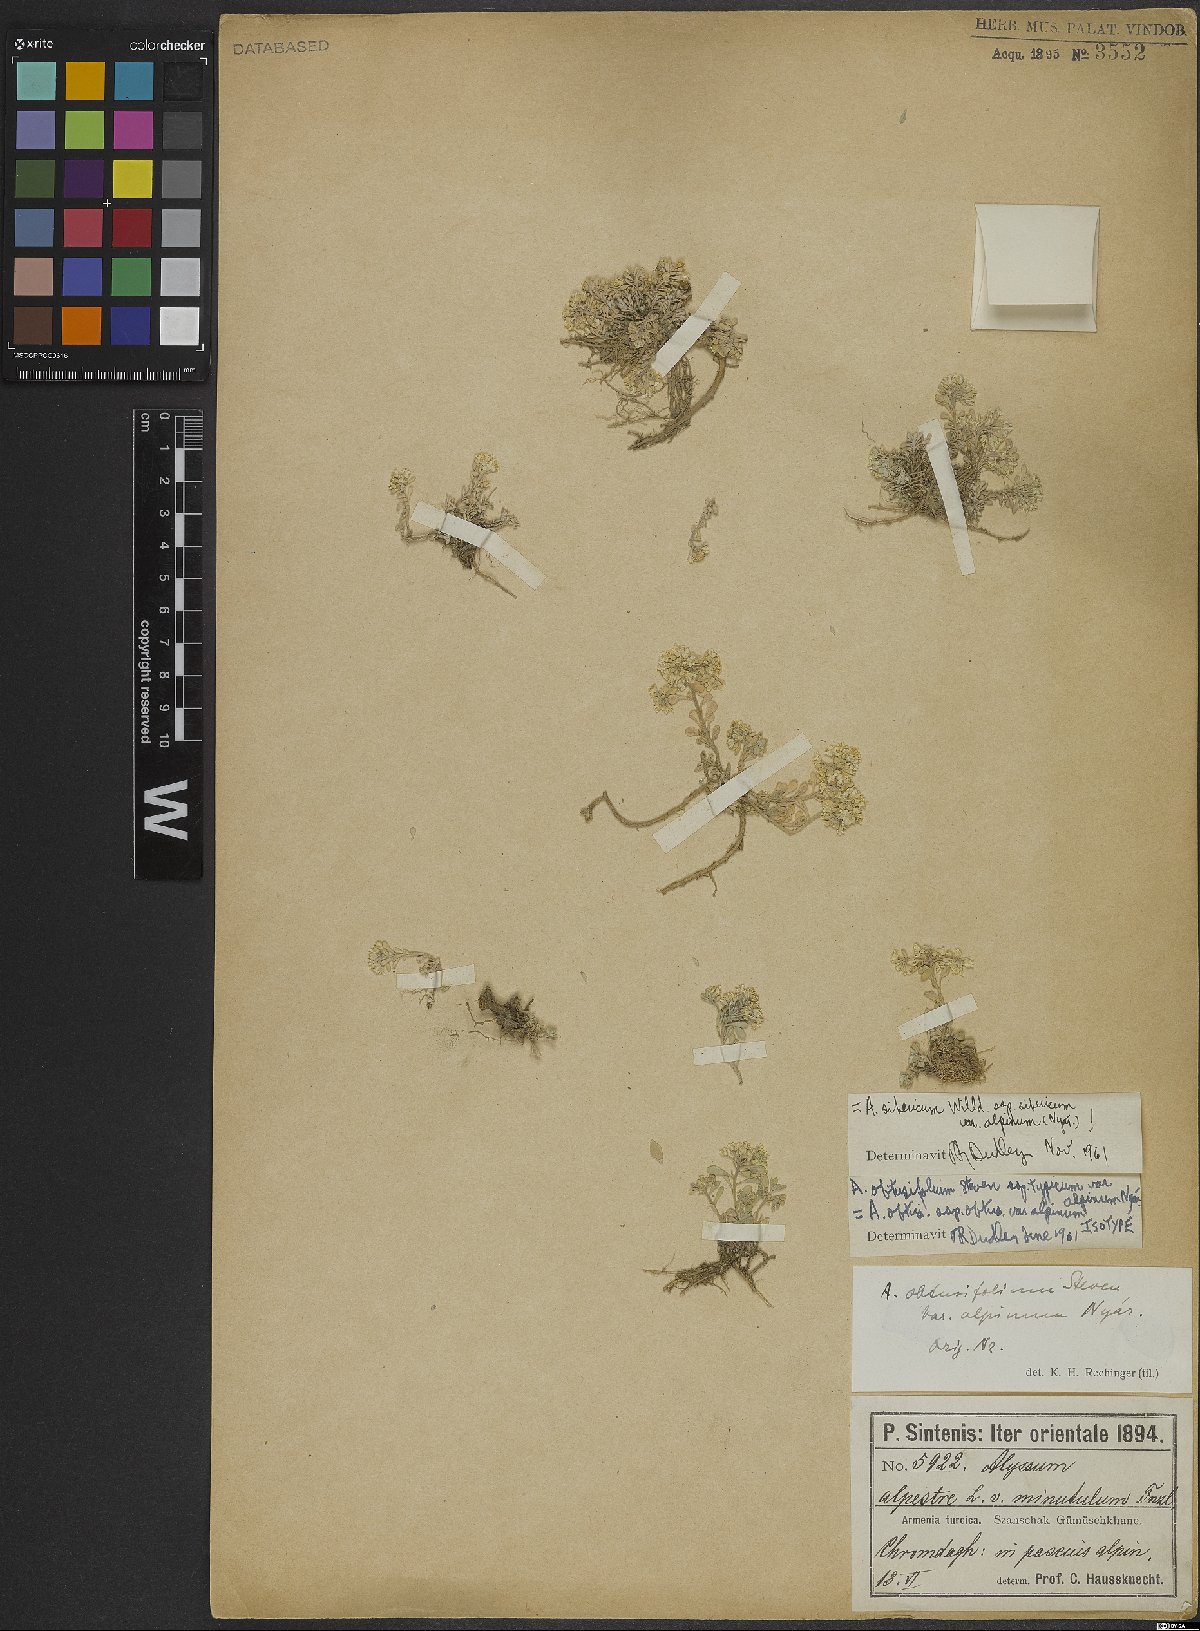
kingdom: Plantae
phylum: Tracheophyta
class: Magnoliopsida
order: Brassicales
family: Brassicaceae
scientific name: Brassicaceae
